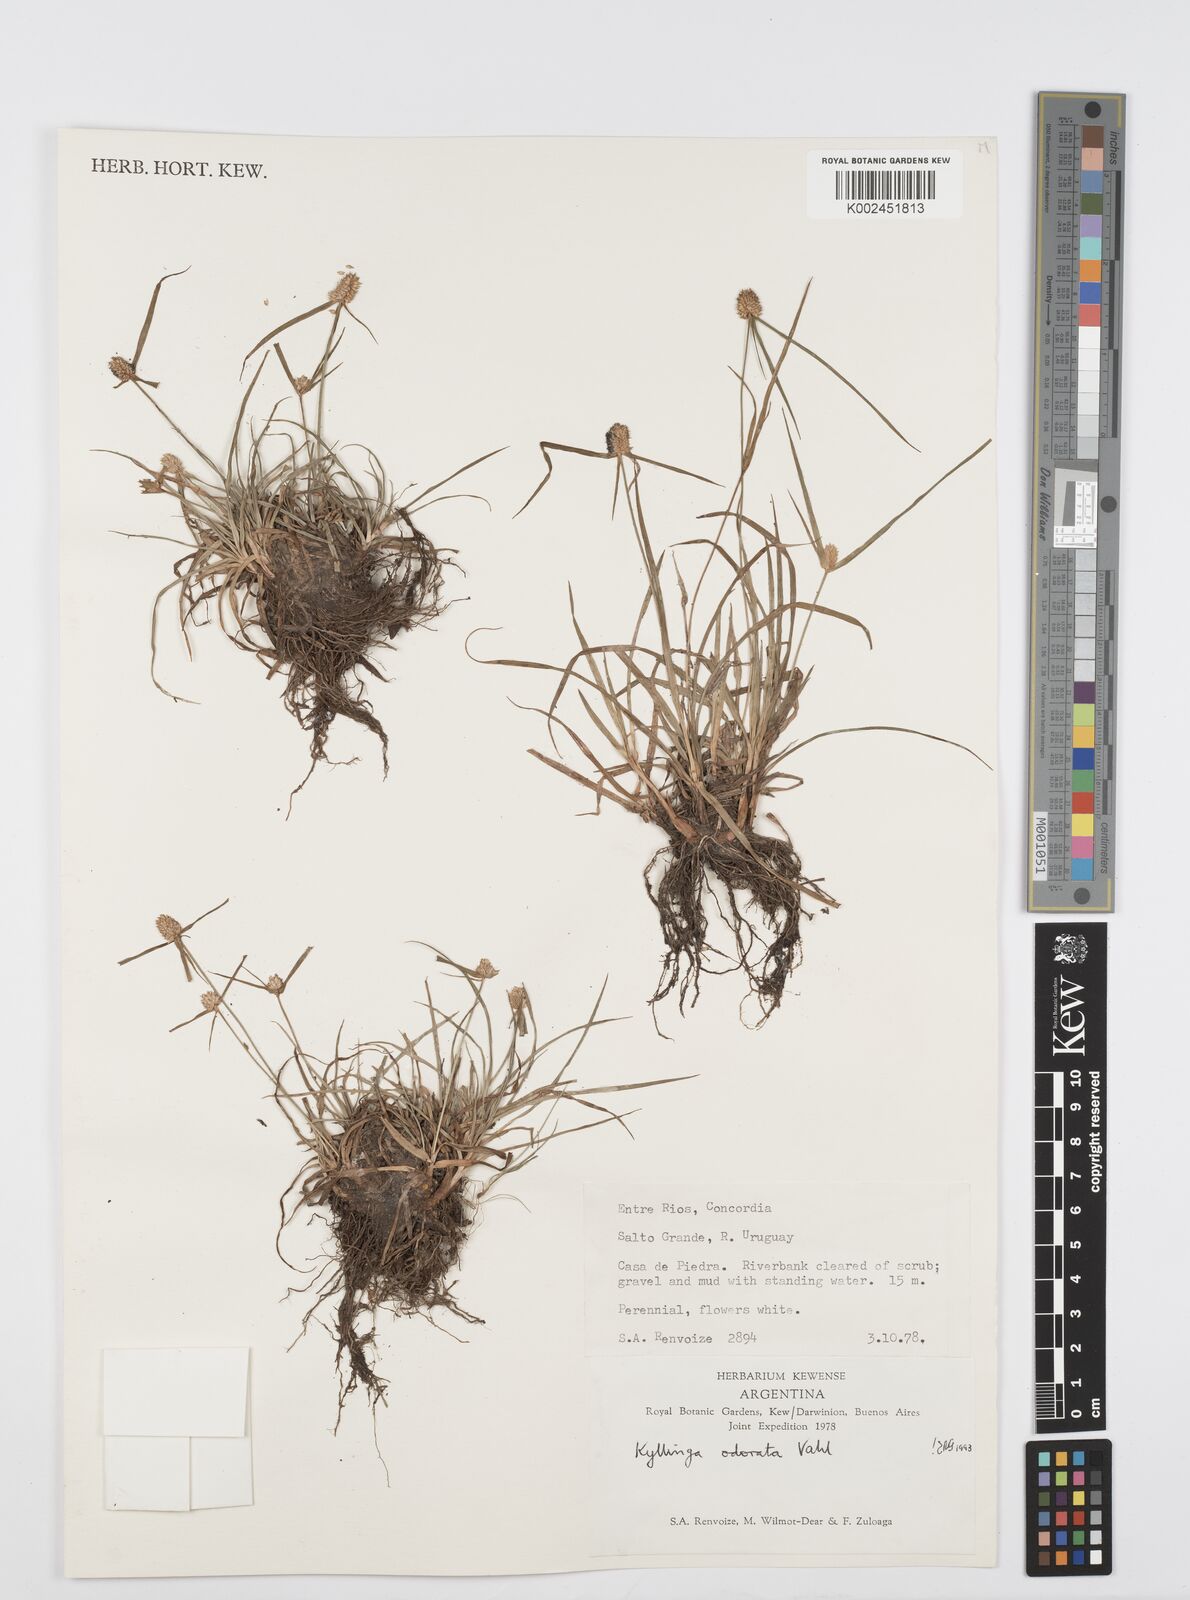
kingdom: Plantae
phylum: Tracheophyta
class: Liliopsida
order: Poales
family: Cyperaceae
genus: Cyperus
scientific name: Cyperus
